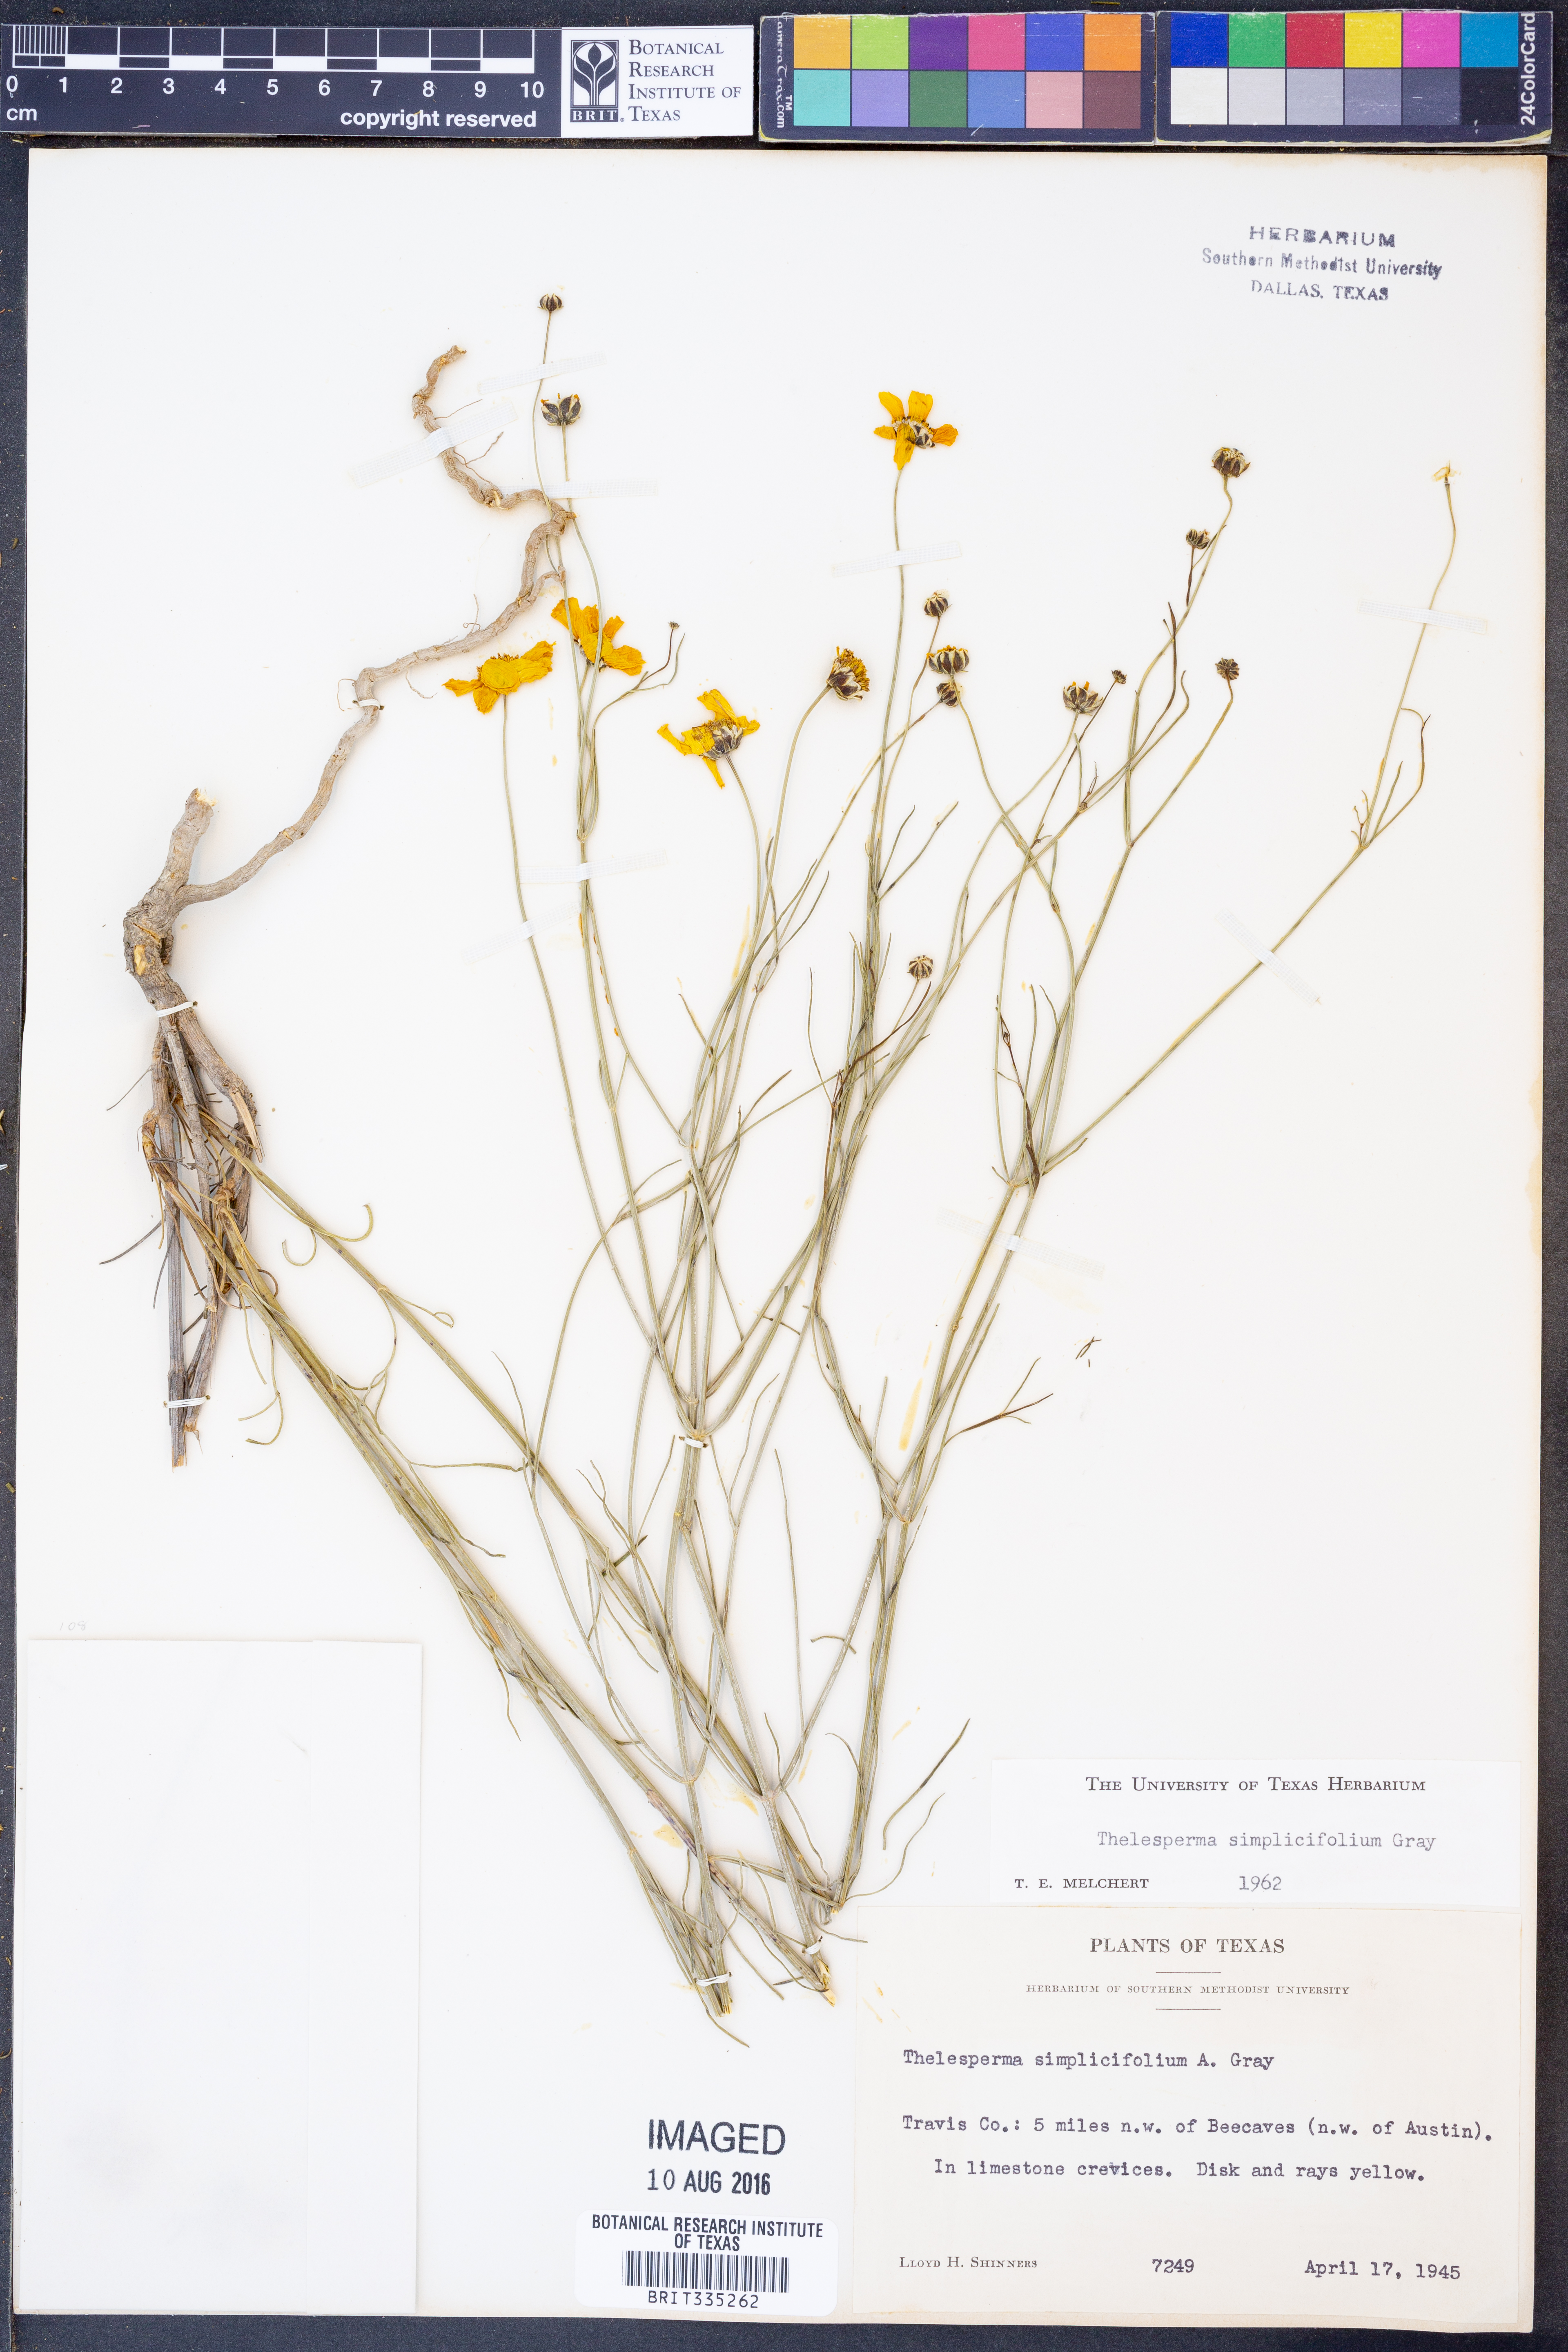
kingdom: Plantae
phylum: Tracheophyta
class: Magnoliopsida
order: Asterales
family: Asteraceae
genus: Thelesperma
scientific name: Thelesperma simplicifolium
